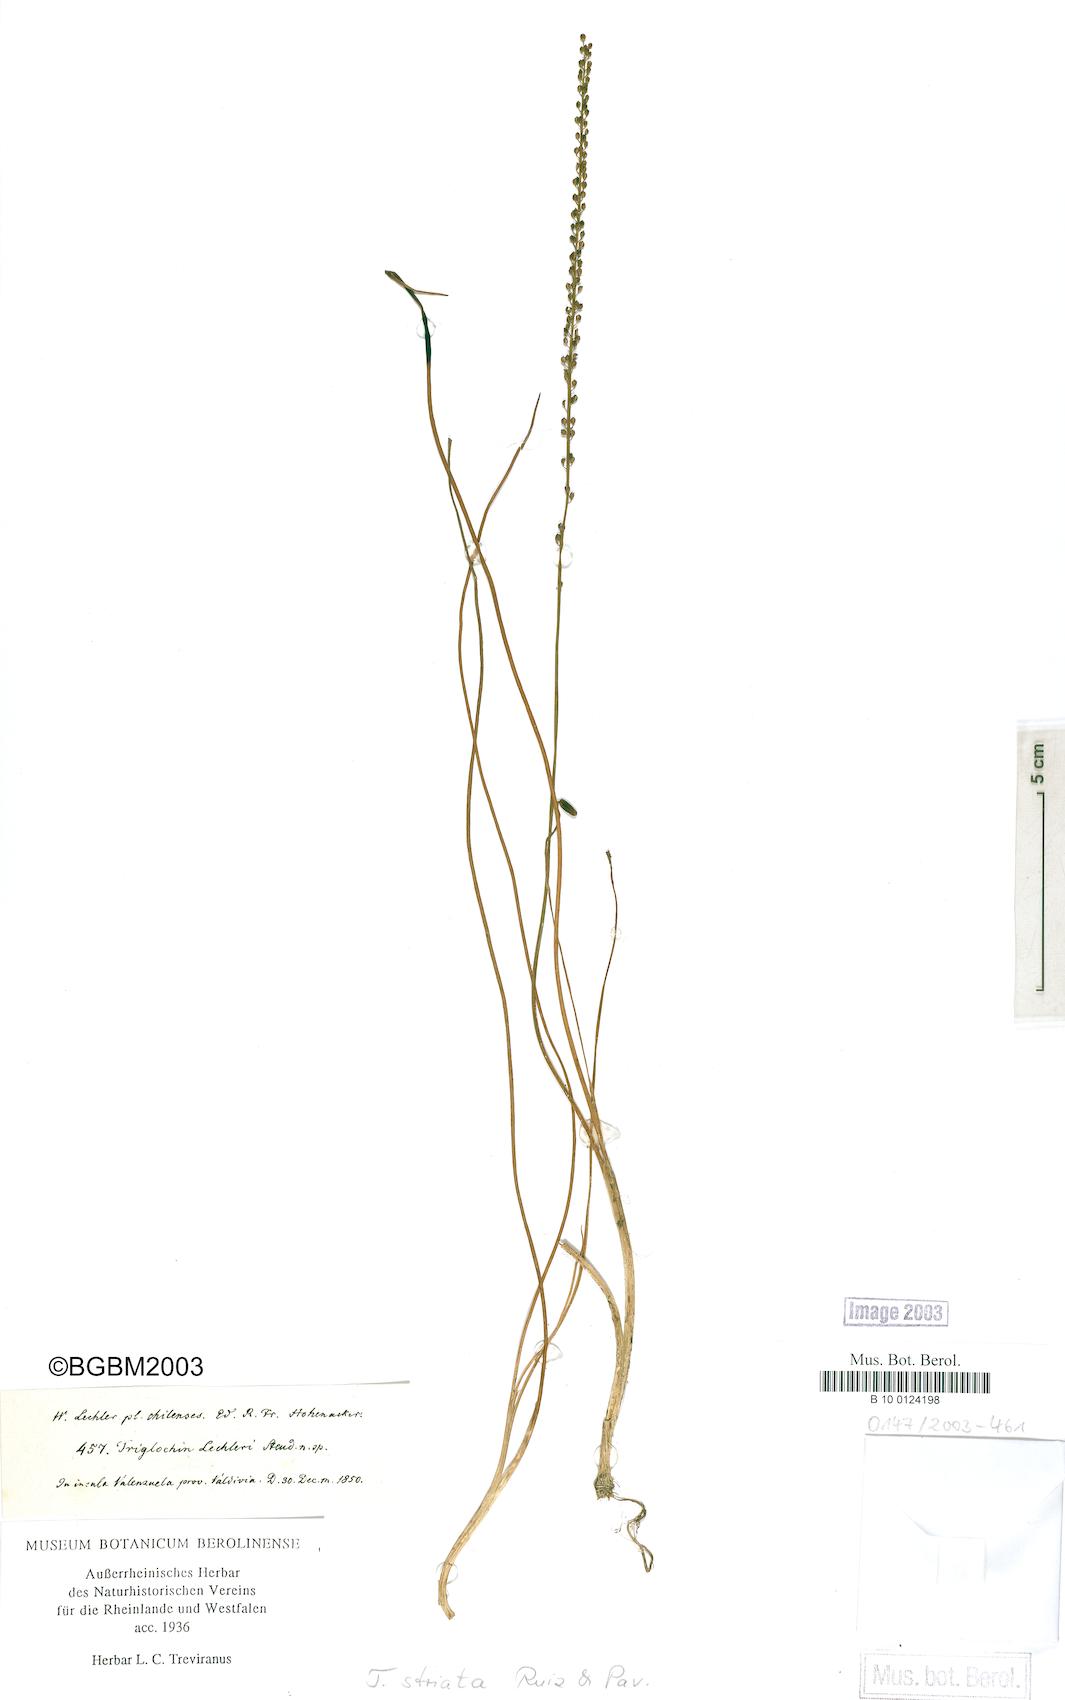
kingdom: Plantae
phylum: Tracheophyta
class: Liliopsida
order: Alismatales
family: Juncaginaceae
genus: Triglochin
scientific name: Triglochin striata
